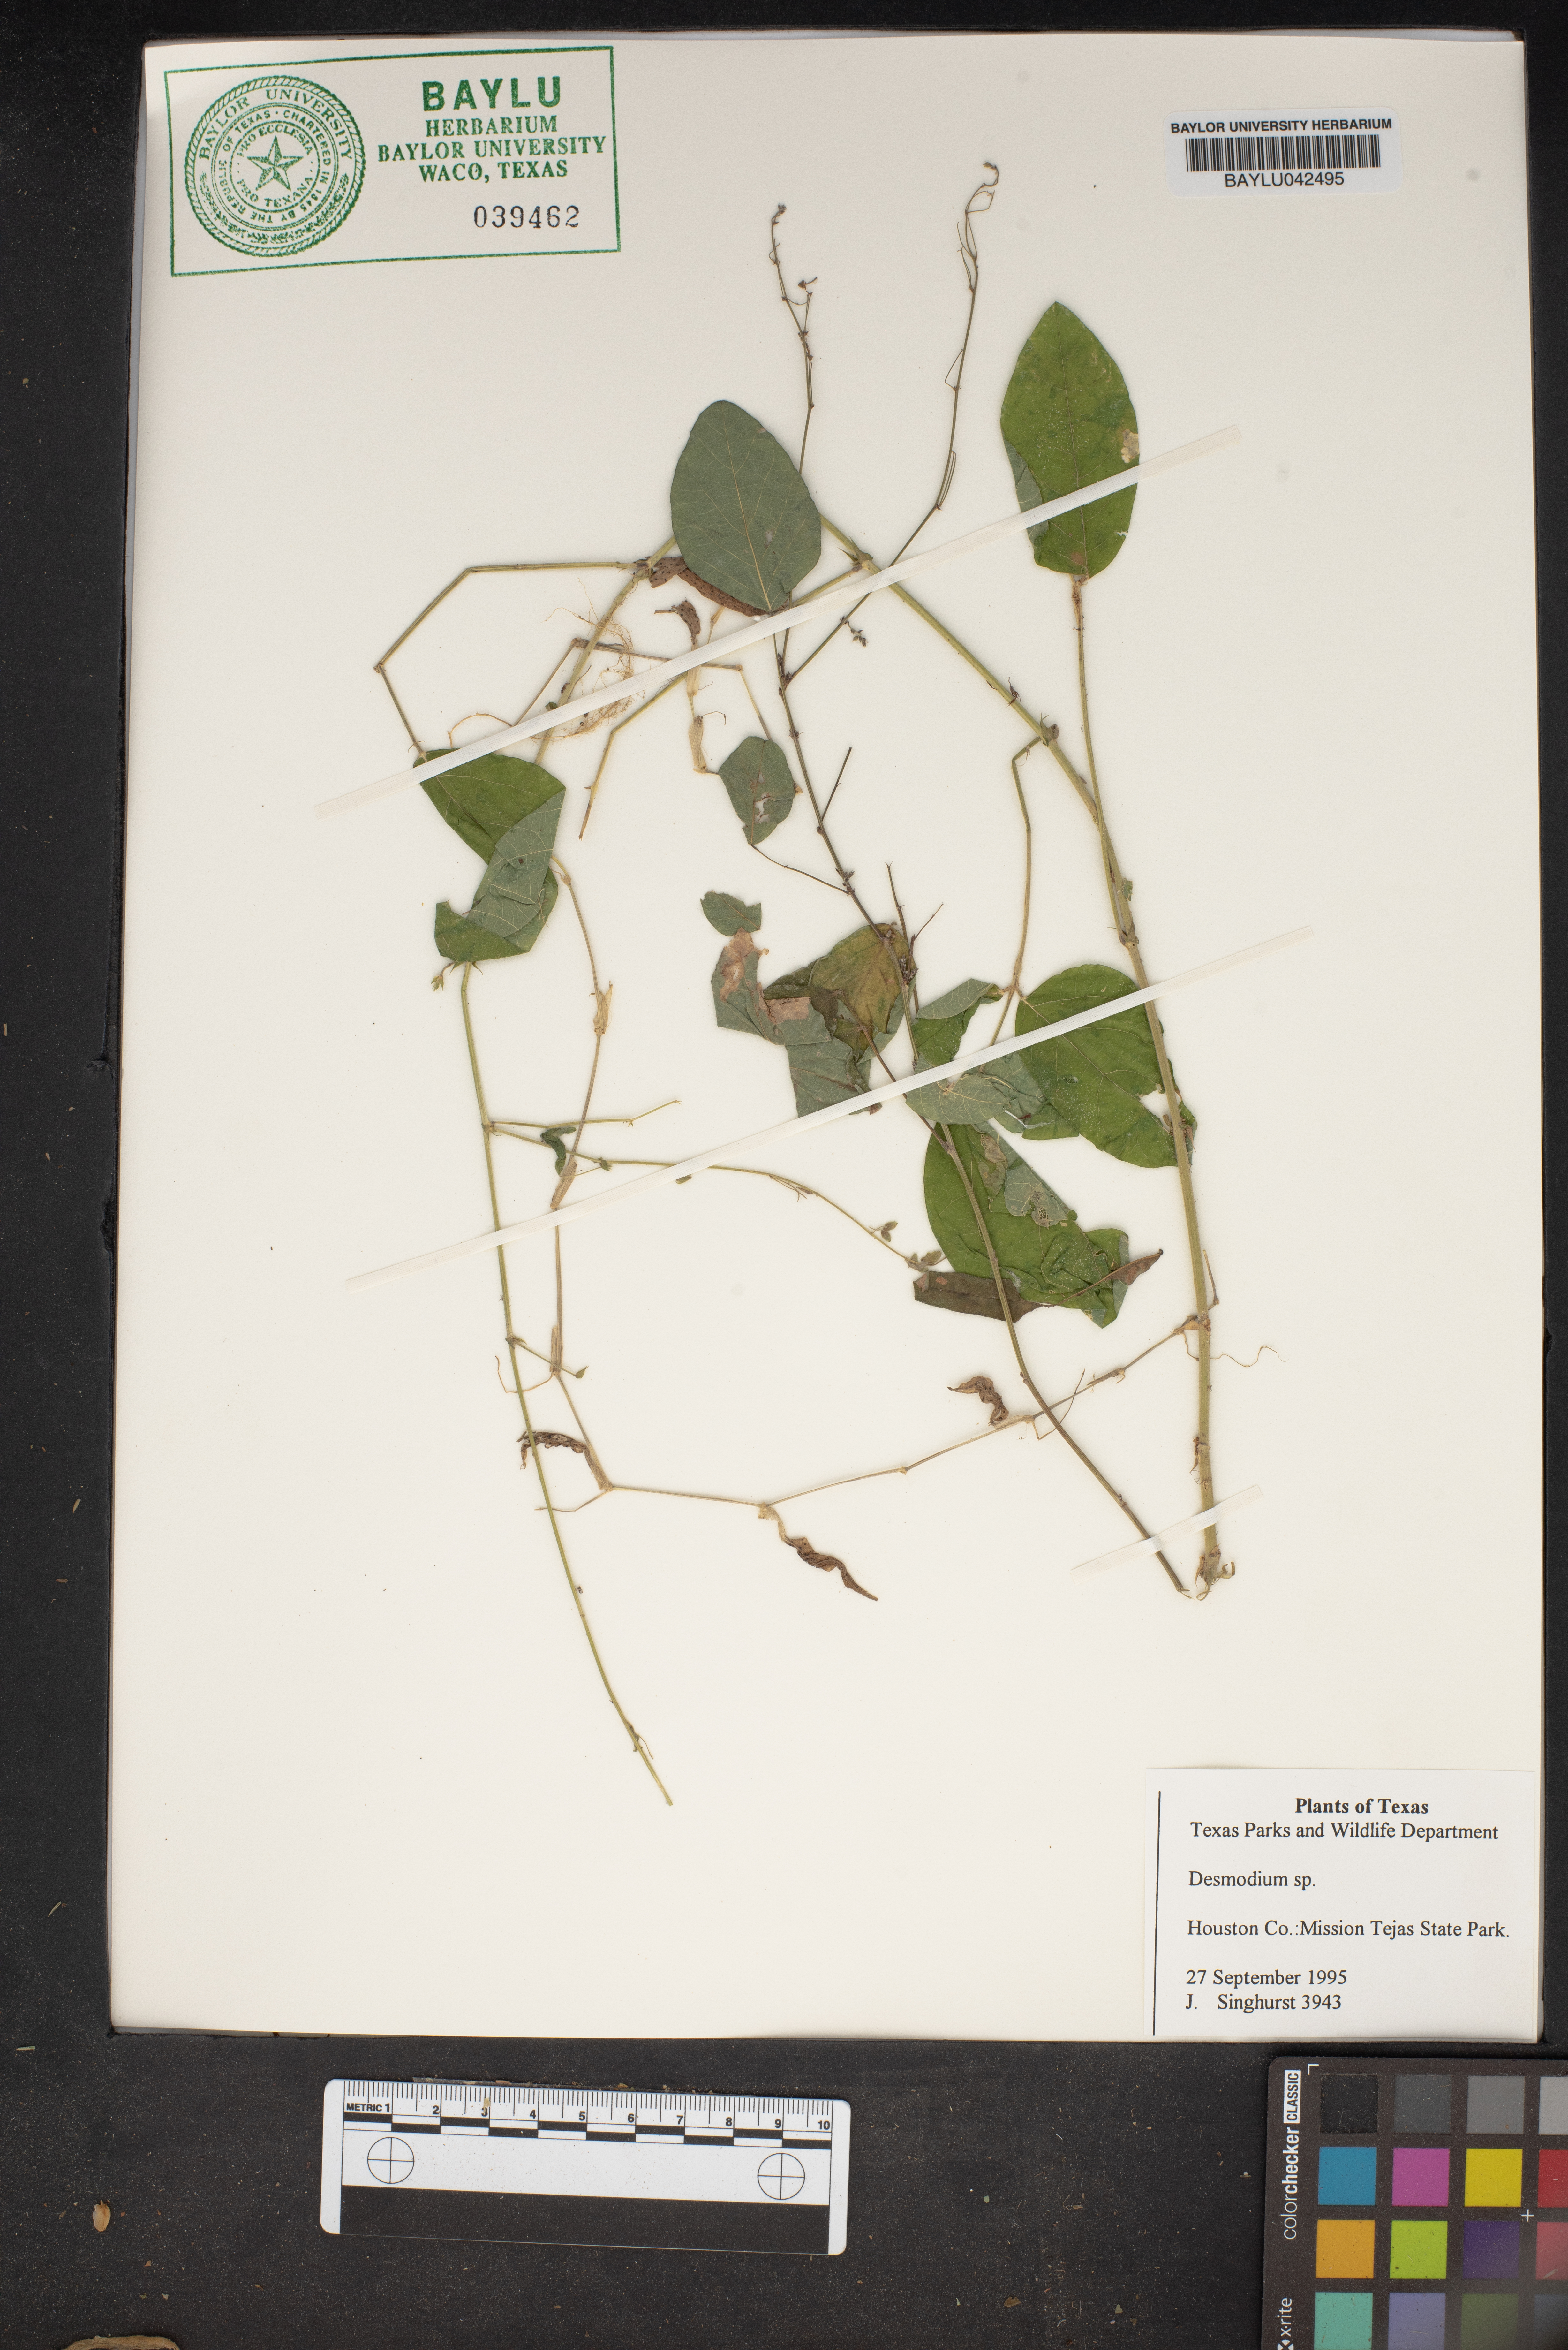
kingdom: Plantae
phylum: Tracheophyta
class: Magnoliopsida
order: Fabales
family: Fabaceae
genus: Desmodium
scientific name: Desmodium
